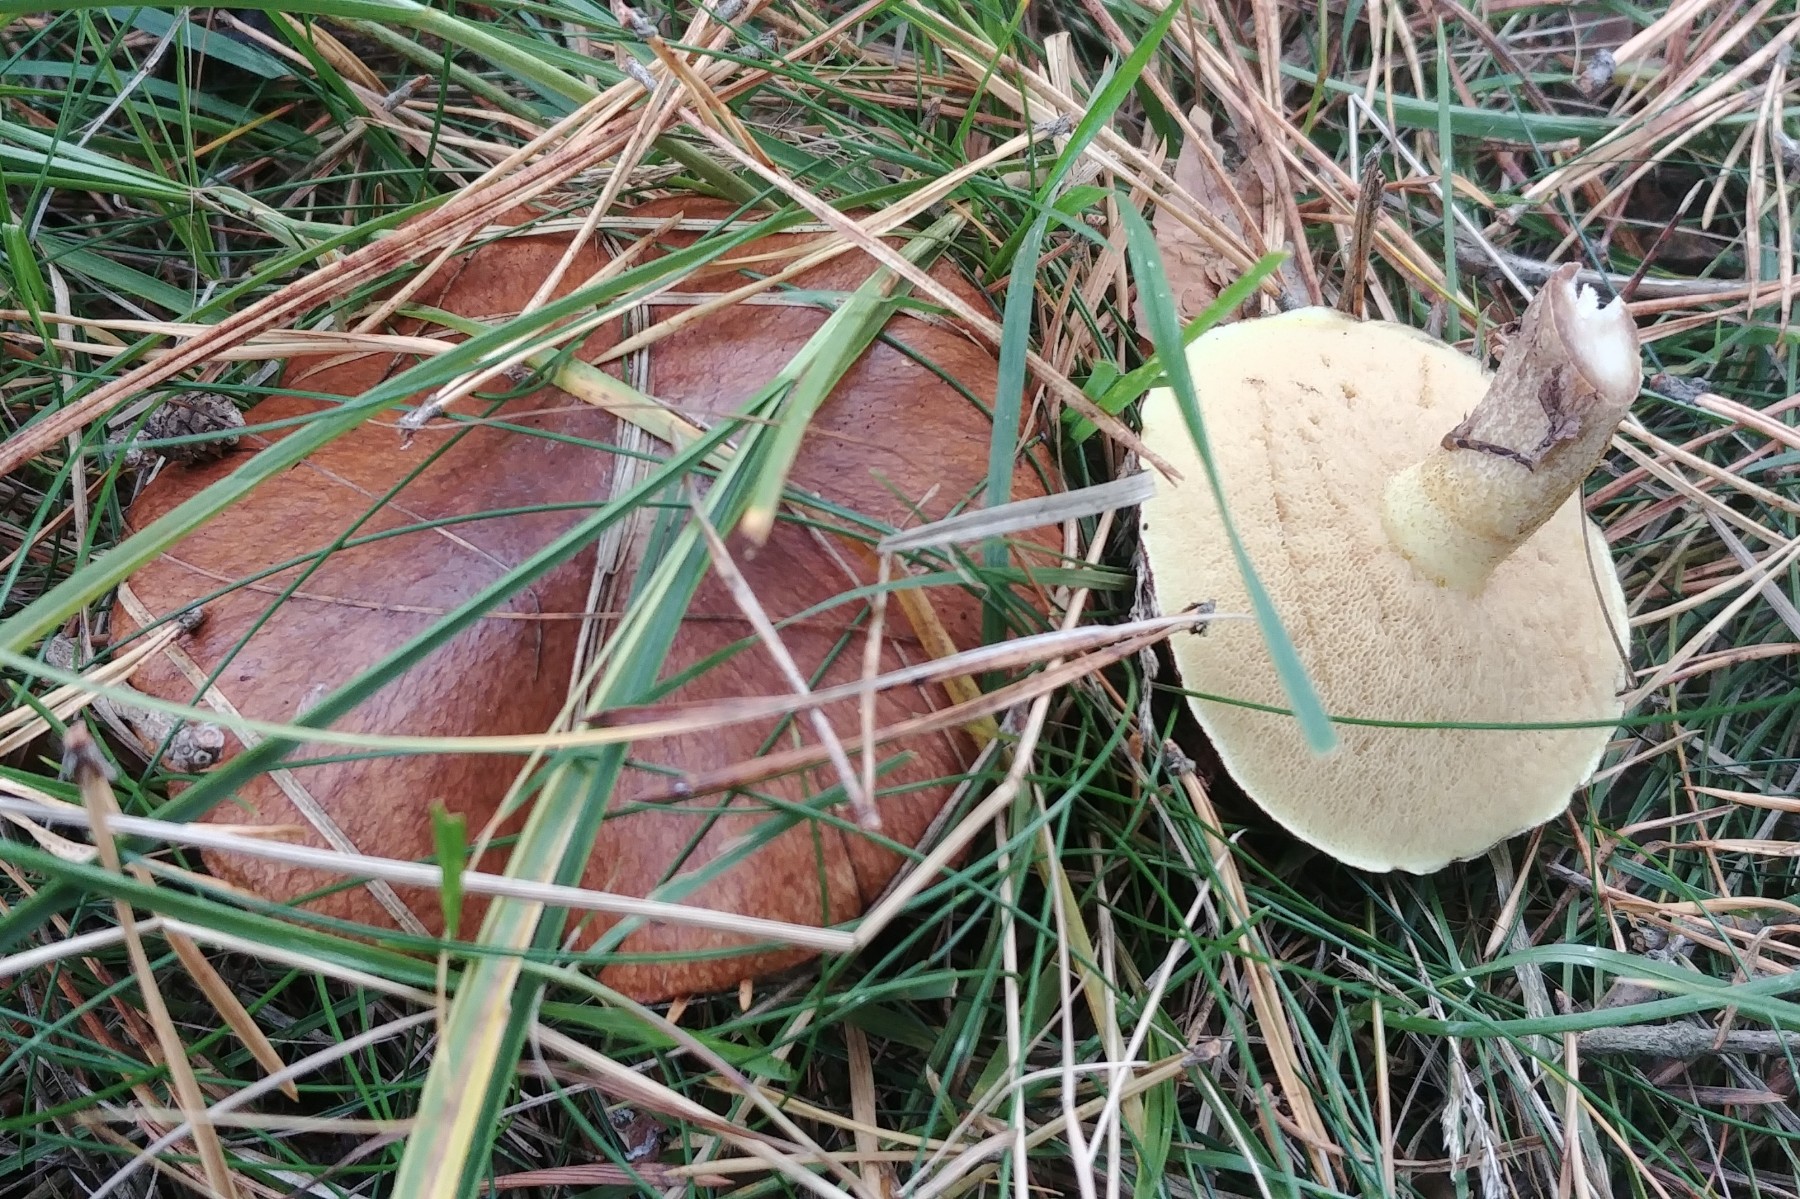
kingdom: Fungi
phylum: Basidiomycota
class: Agaricomycetes
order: Boletales
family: Suillaceae
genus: Suillus
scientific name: Suillus luteus
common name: brungul slimrørhat
